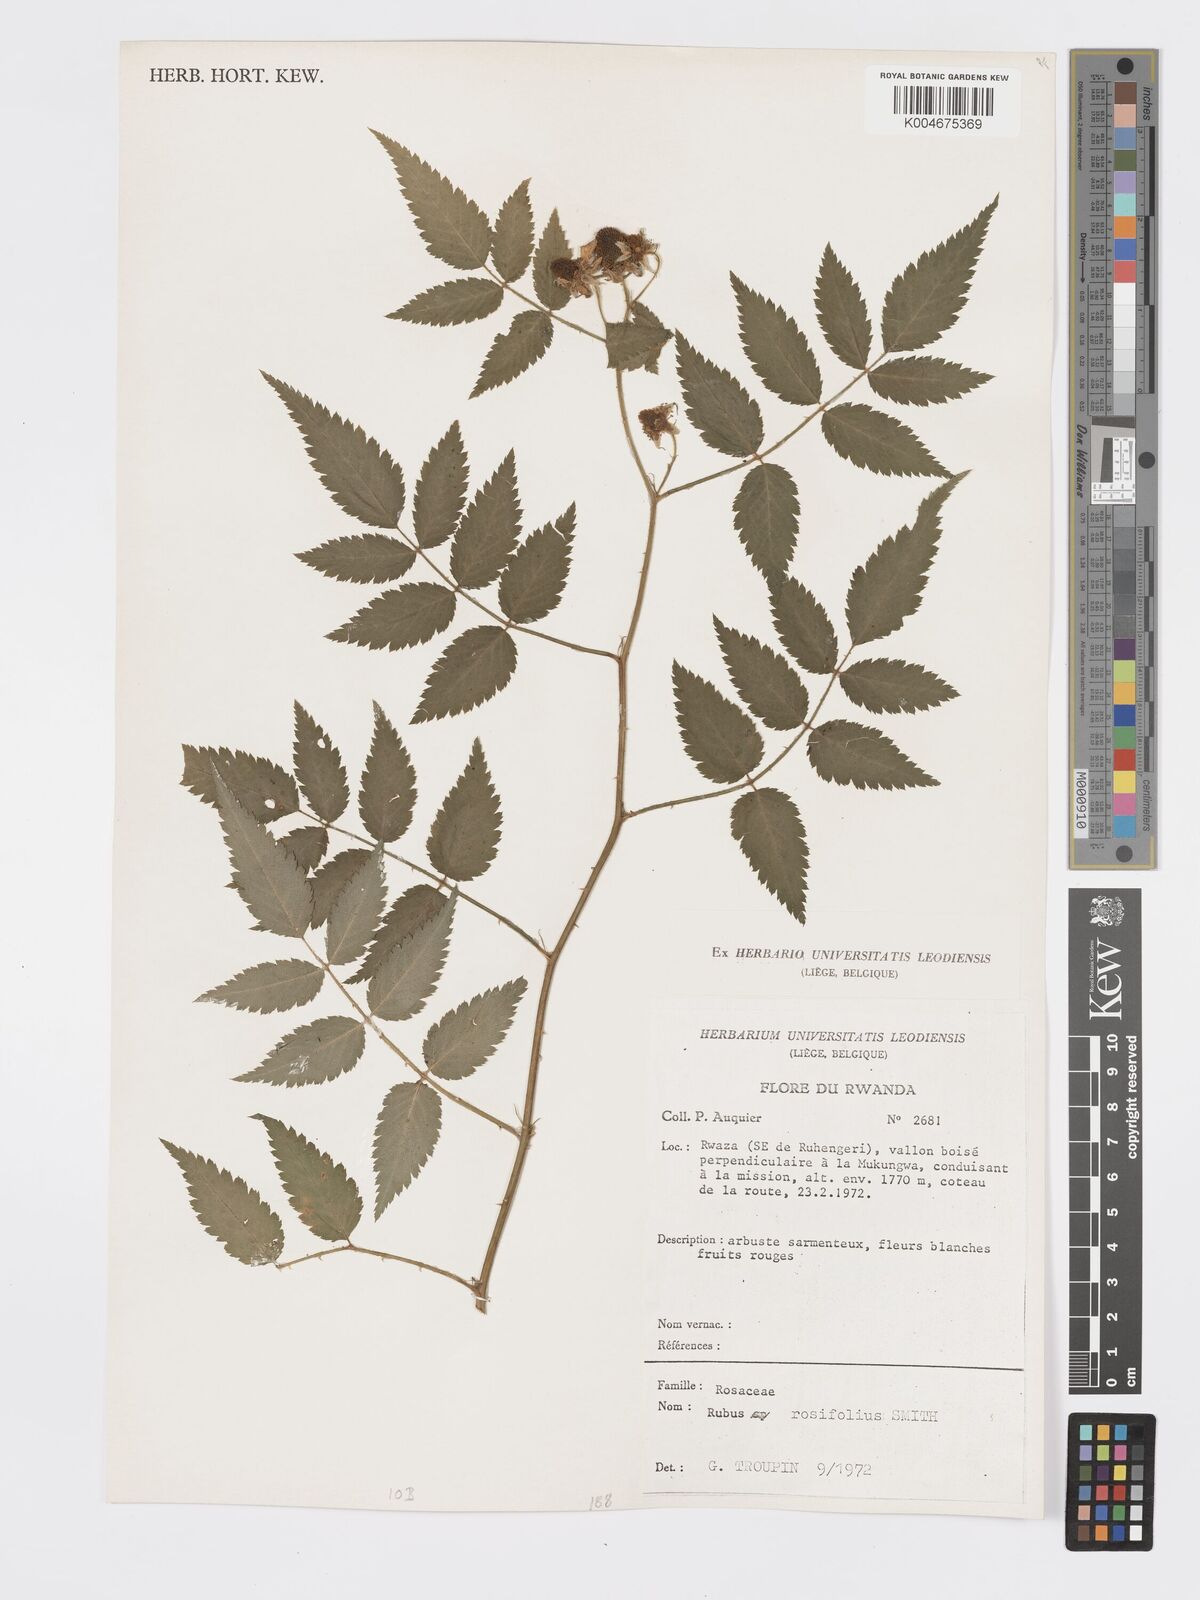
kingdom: Plantae
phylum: Tracheophyta
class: Magnoliopsida
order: Rosales
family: Rosaceae
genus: Rubus
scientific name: Rubus
